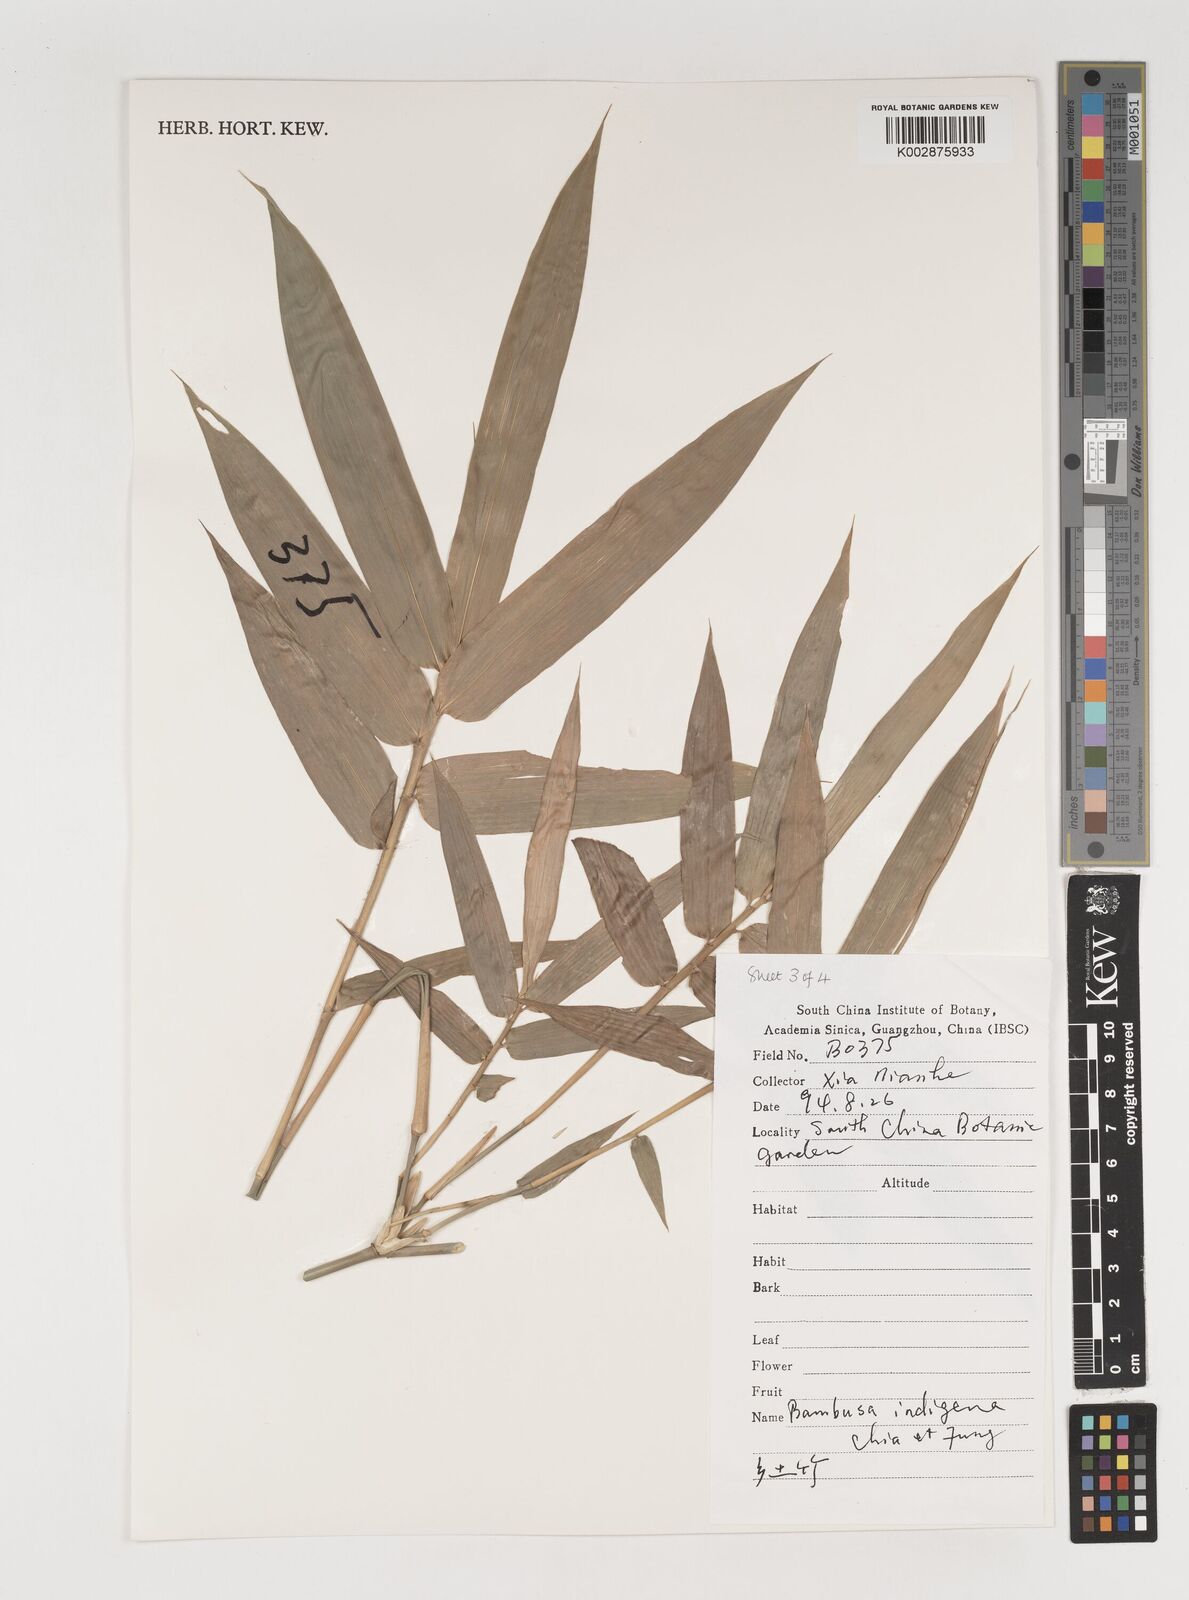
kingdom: Plantae
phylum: Tracheophyta
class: Liliopsida
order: Poales
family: Poaceae
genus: Bambusa
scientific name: Bambusa indigena
